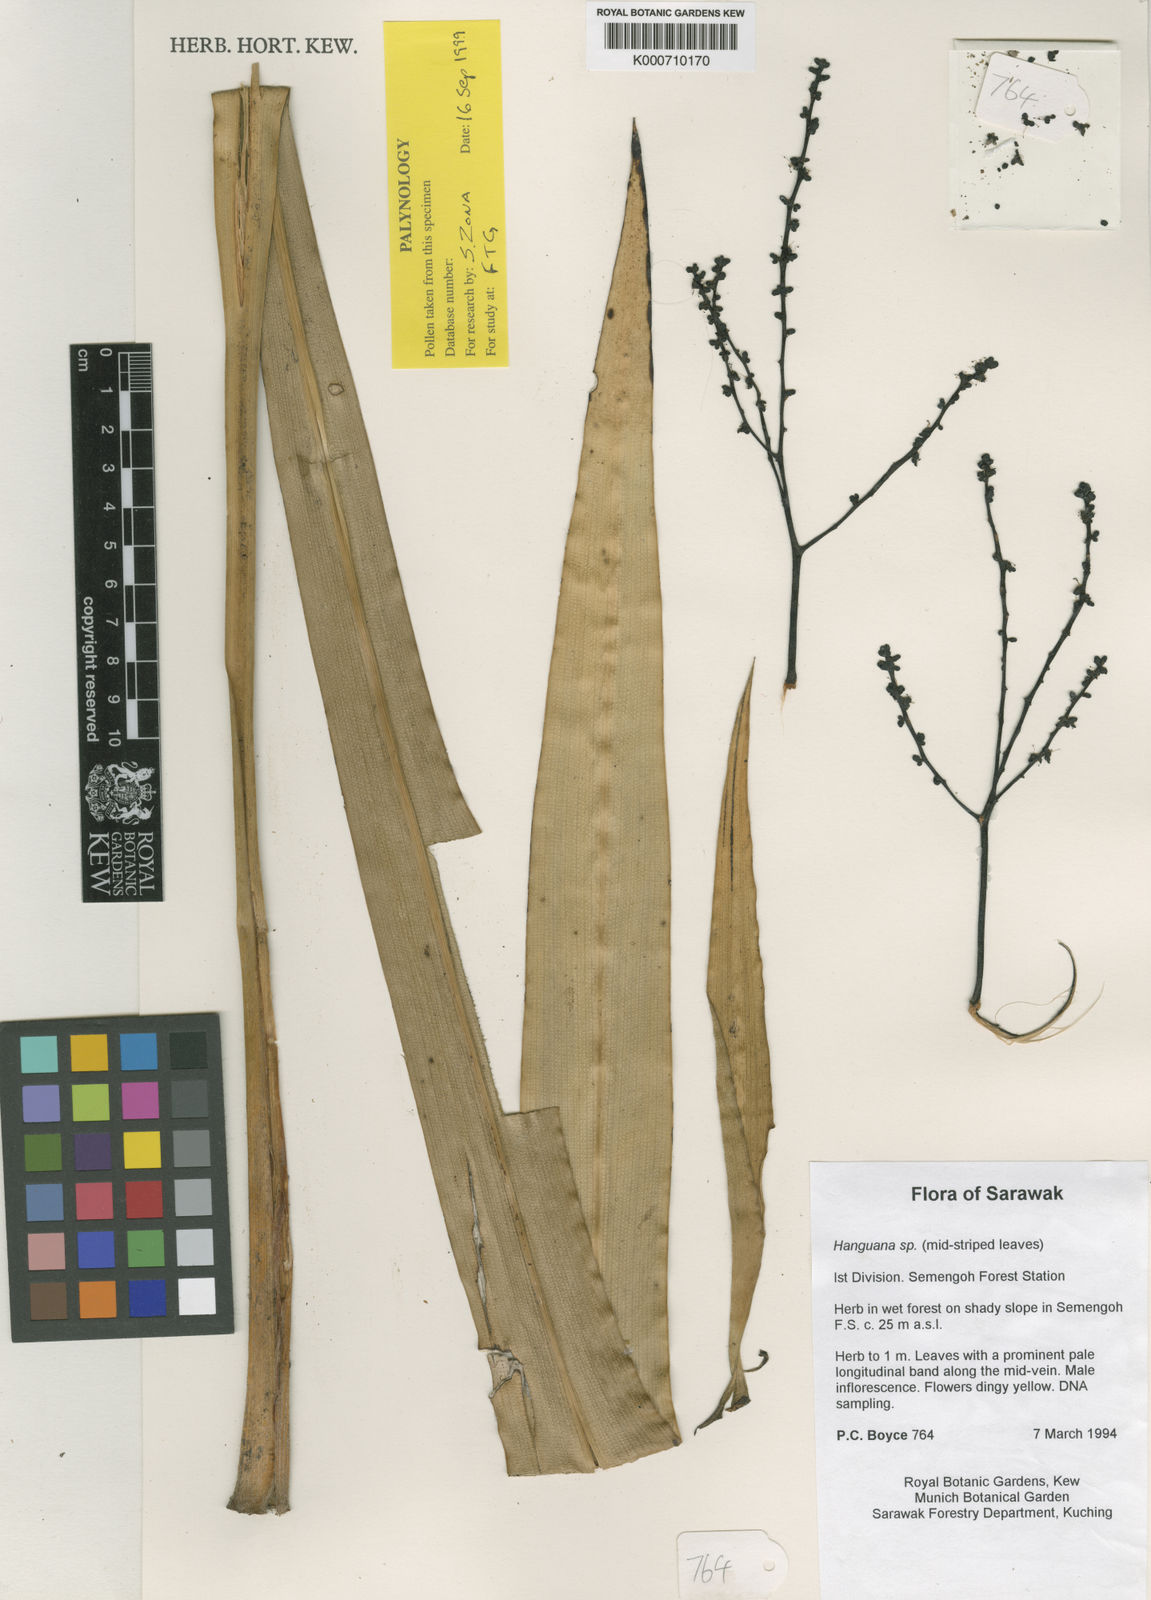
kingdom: Plantae
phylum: Tracheophyta
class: Liliopsida
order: Commelinales
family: Hanguanaceae
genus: Hanguana
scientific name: Hanguana
